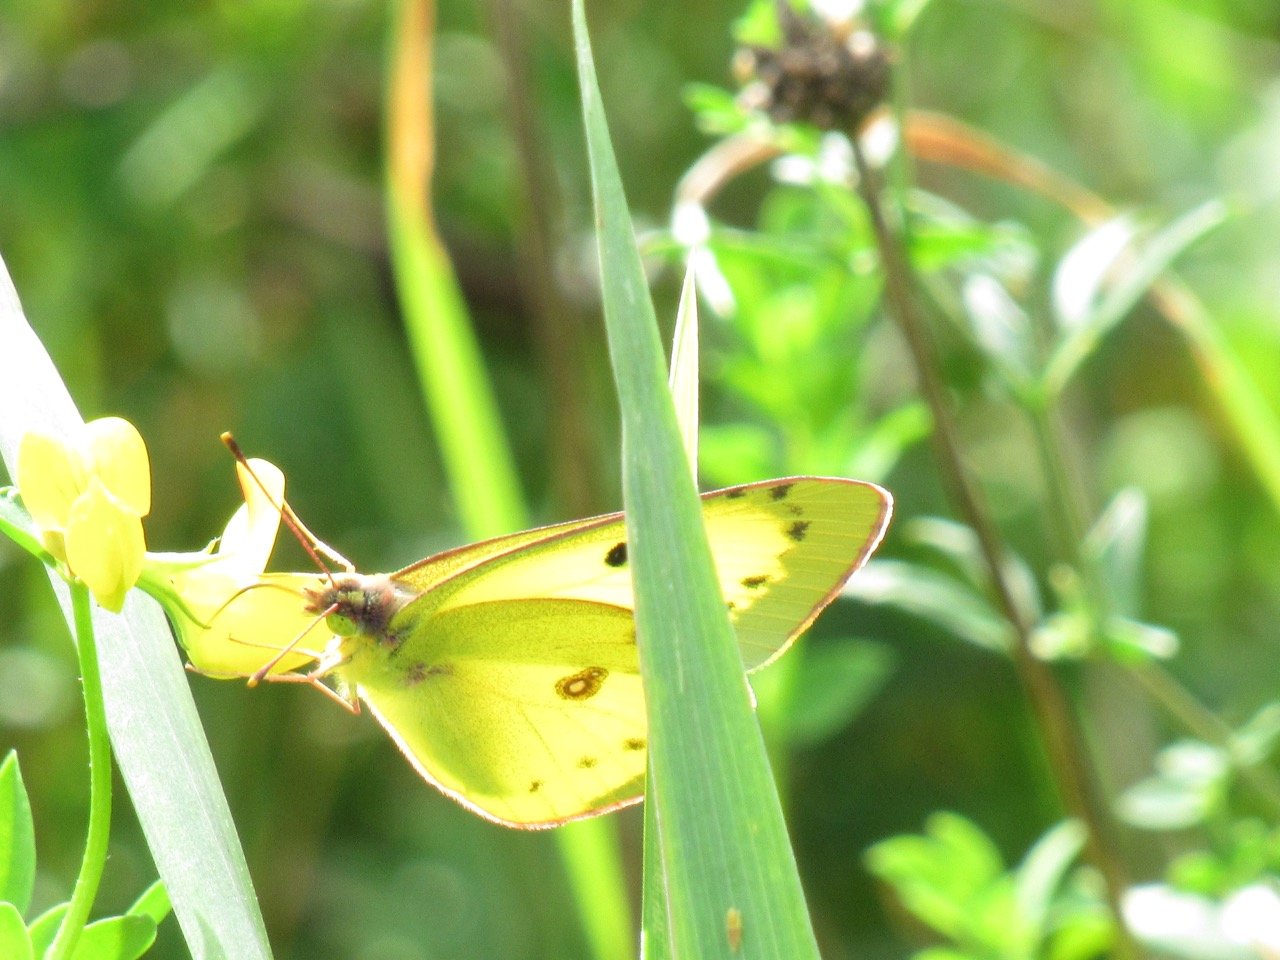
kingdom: Animalia
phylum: Arthropoda
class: Insecta
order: Lepidoptera
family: Pieridae
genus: Colias
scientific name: Colias philodice
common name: Clouded Sulphur
